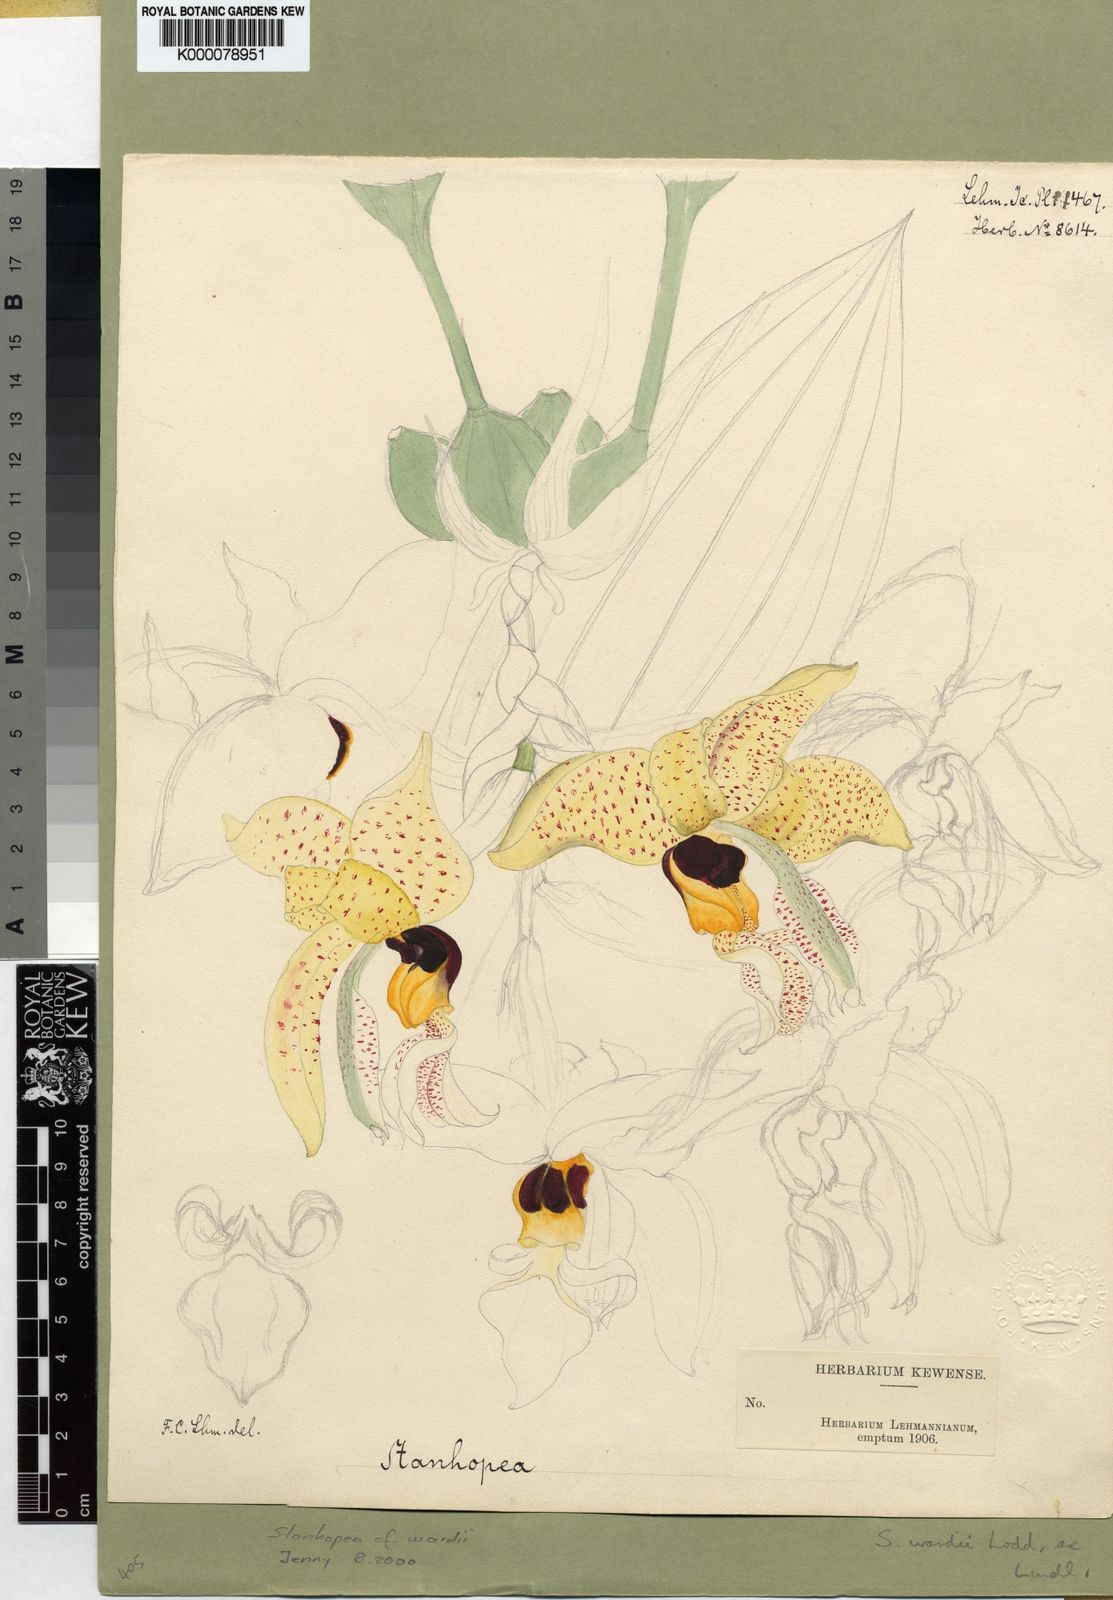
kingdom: Plantae
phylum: Tracheophyta
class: Liliopsida
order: Asparagales
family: Orchidaceae
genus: Stanhopea
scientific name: Stanhopea wardii
